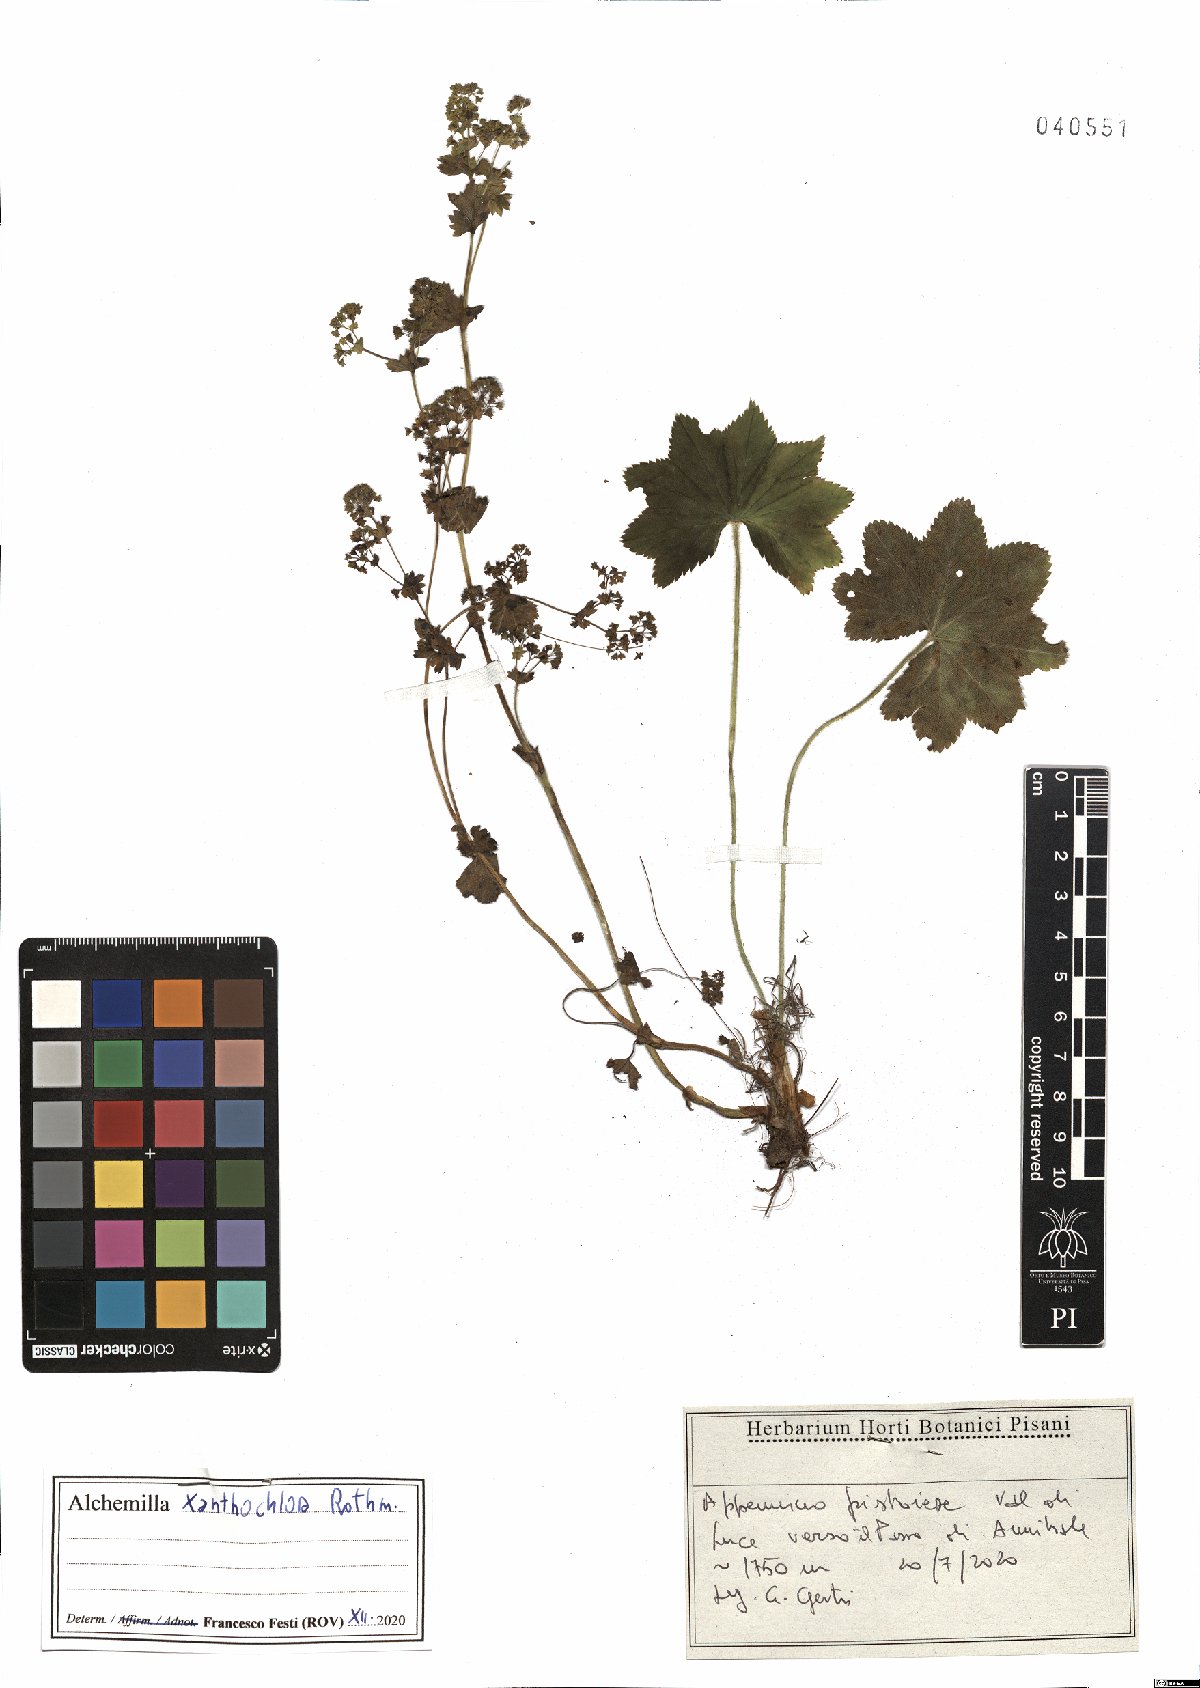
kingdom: Plantae
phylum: Tracheophyta
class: Magnoliopsida
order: Rosales
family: Rosaceae
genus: Alchemilla
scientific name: Alchemilla xanthochlora
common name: Intermediate lady's-mantle
